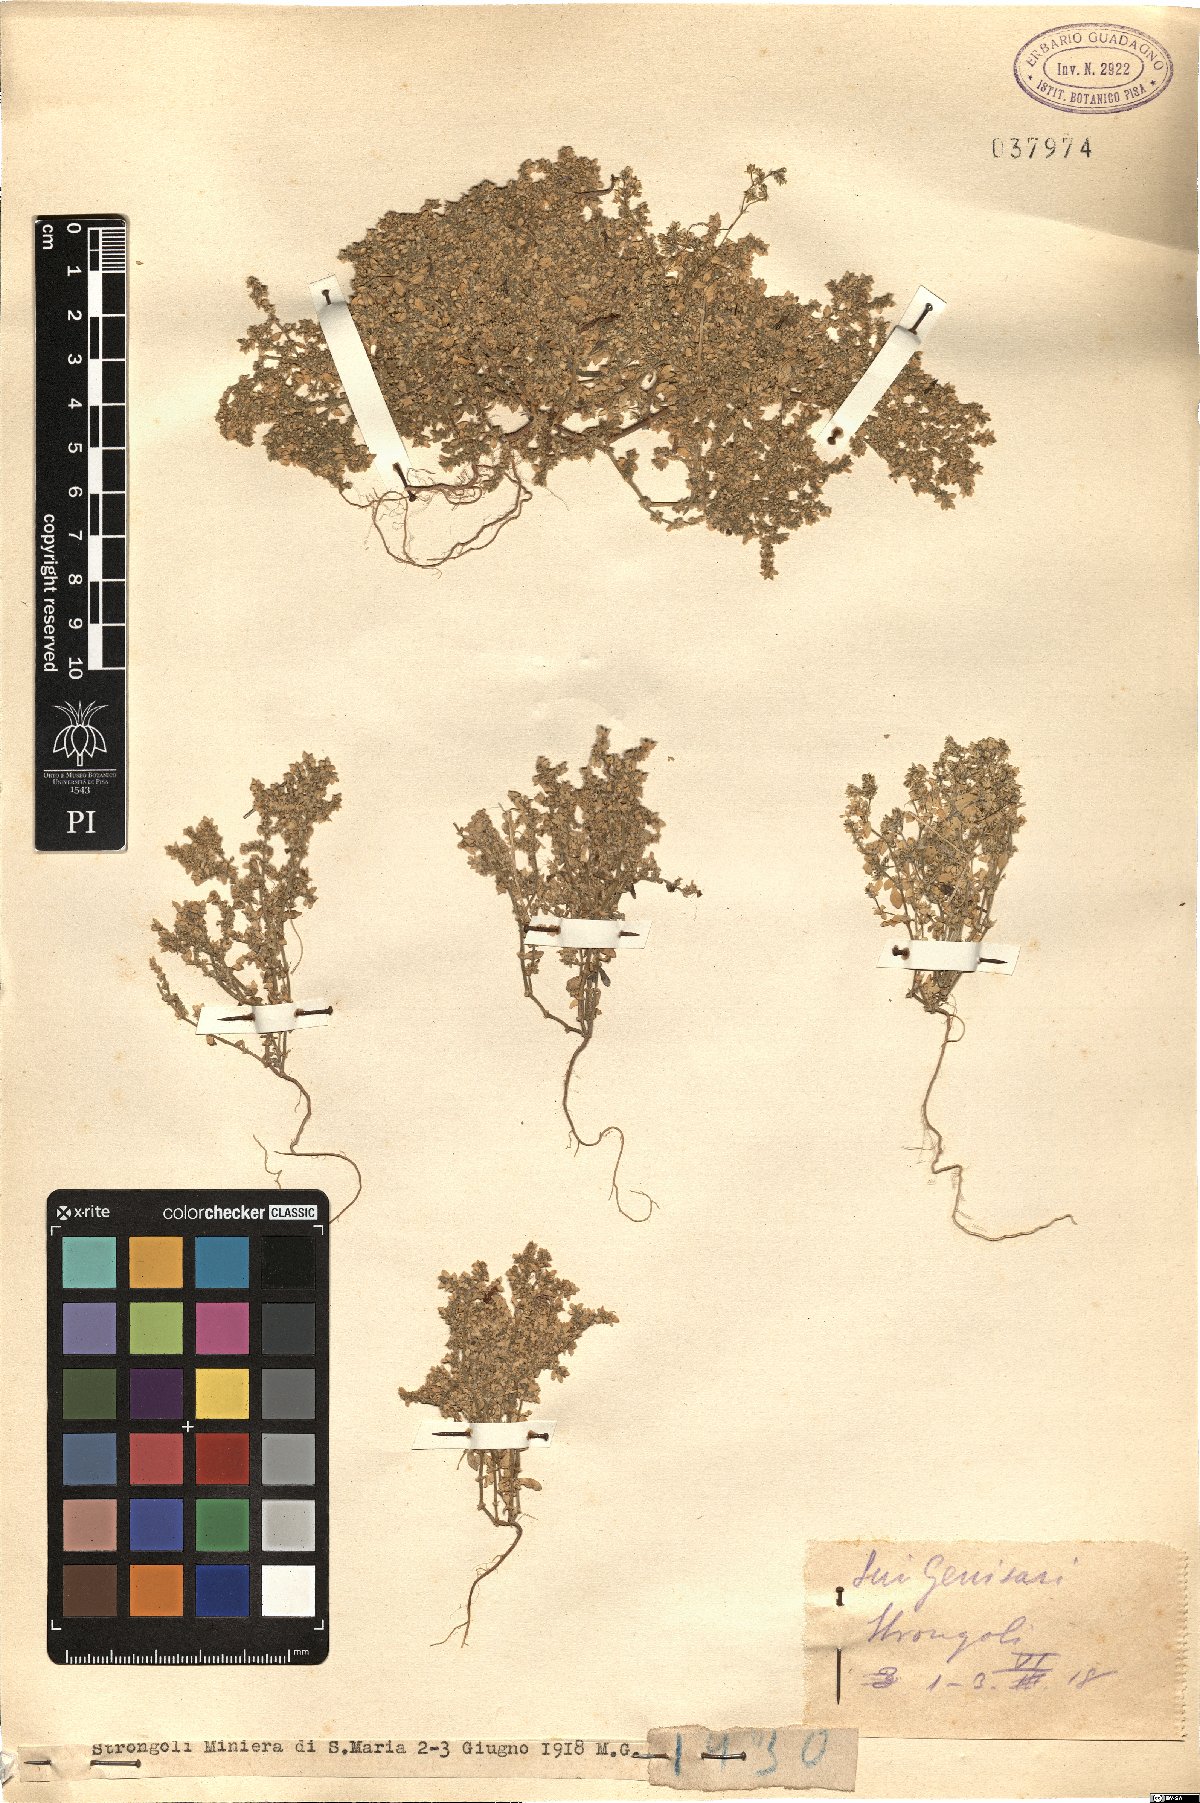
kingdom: Plantae
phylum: Tracheophyta
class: Magnoliopsida
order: Caryophyllales
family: Caryophyllaceae
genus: Herniaria
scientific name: Herniaria
